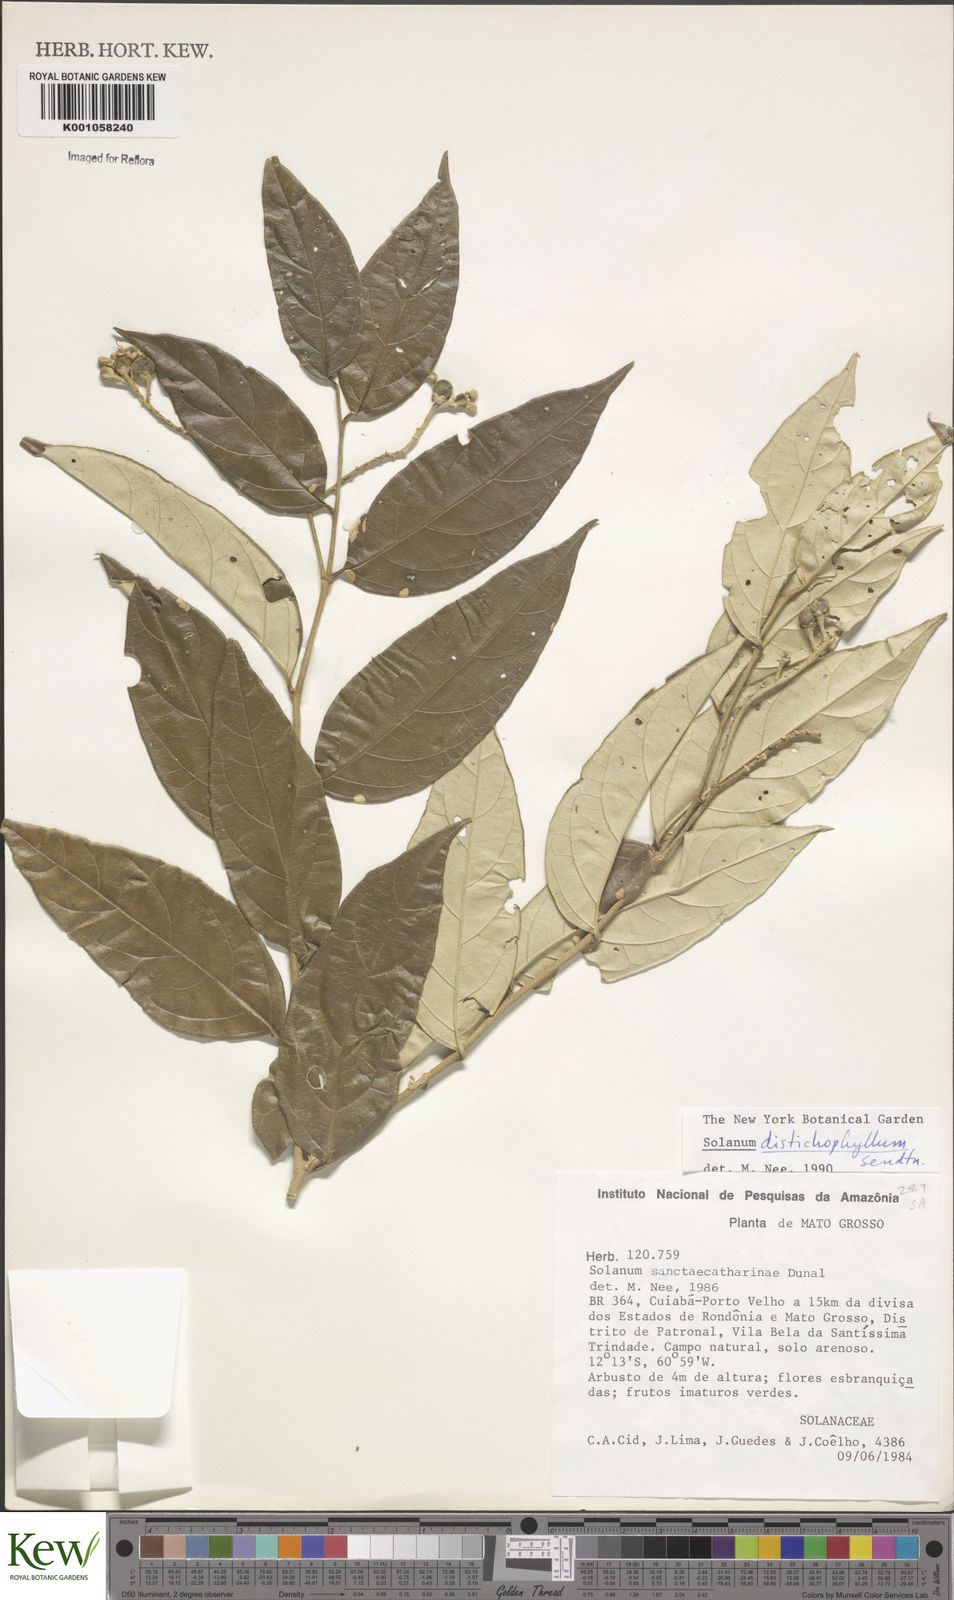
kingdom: Plantae
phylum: Tracheophyta
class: Magnoliopsida
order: Solanales
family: Solanaceae
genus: Solanum
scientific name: Solanum distichophyllum
